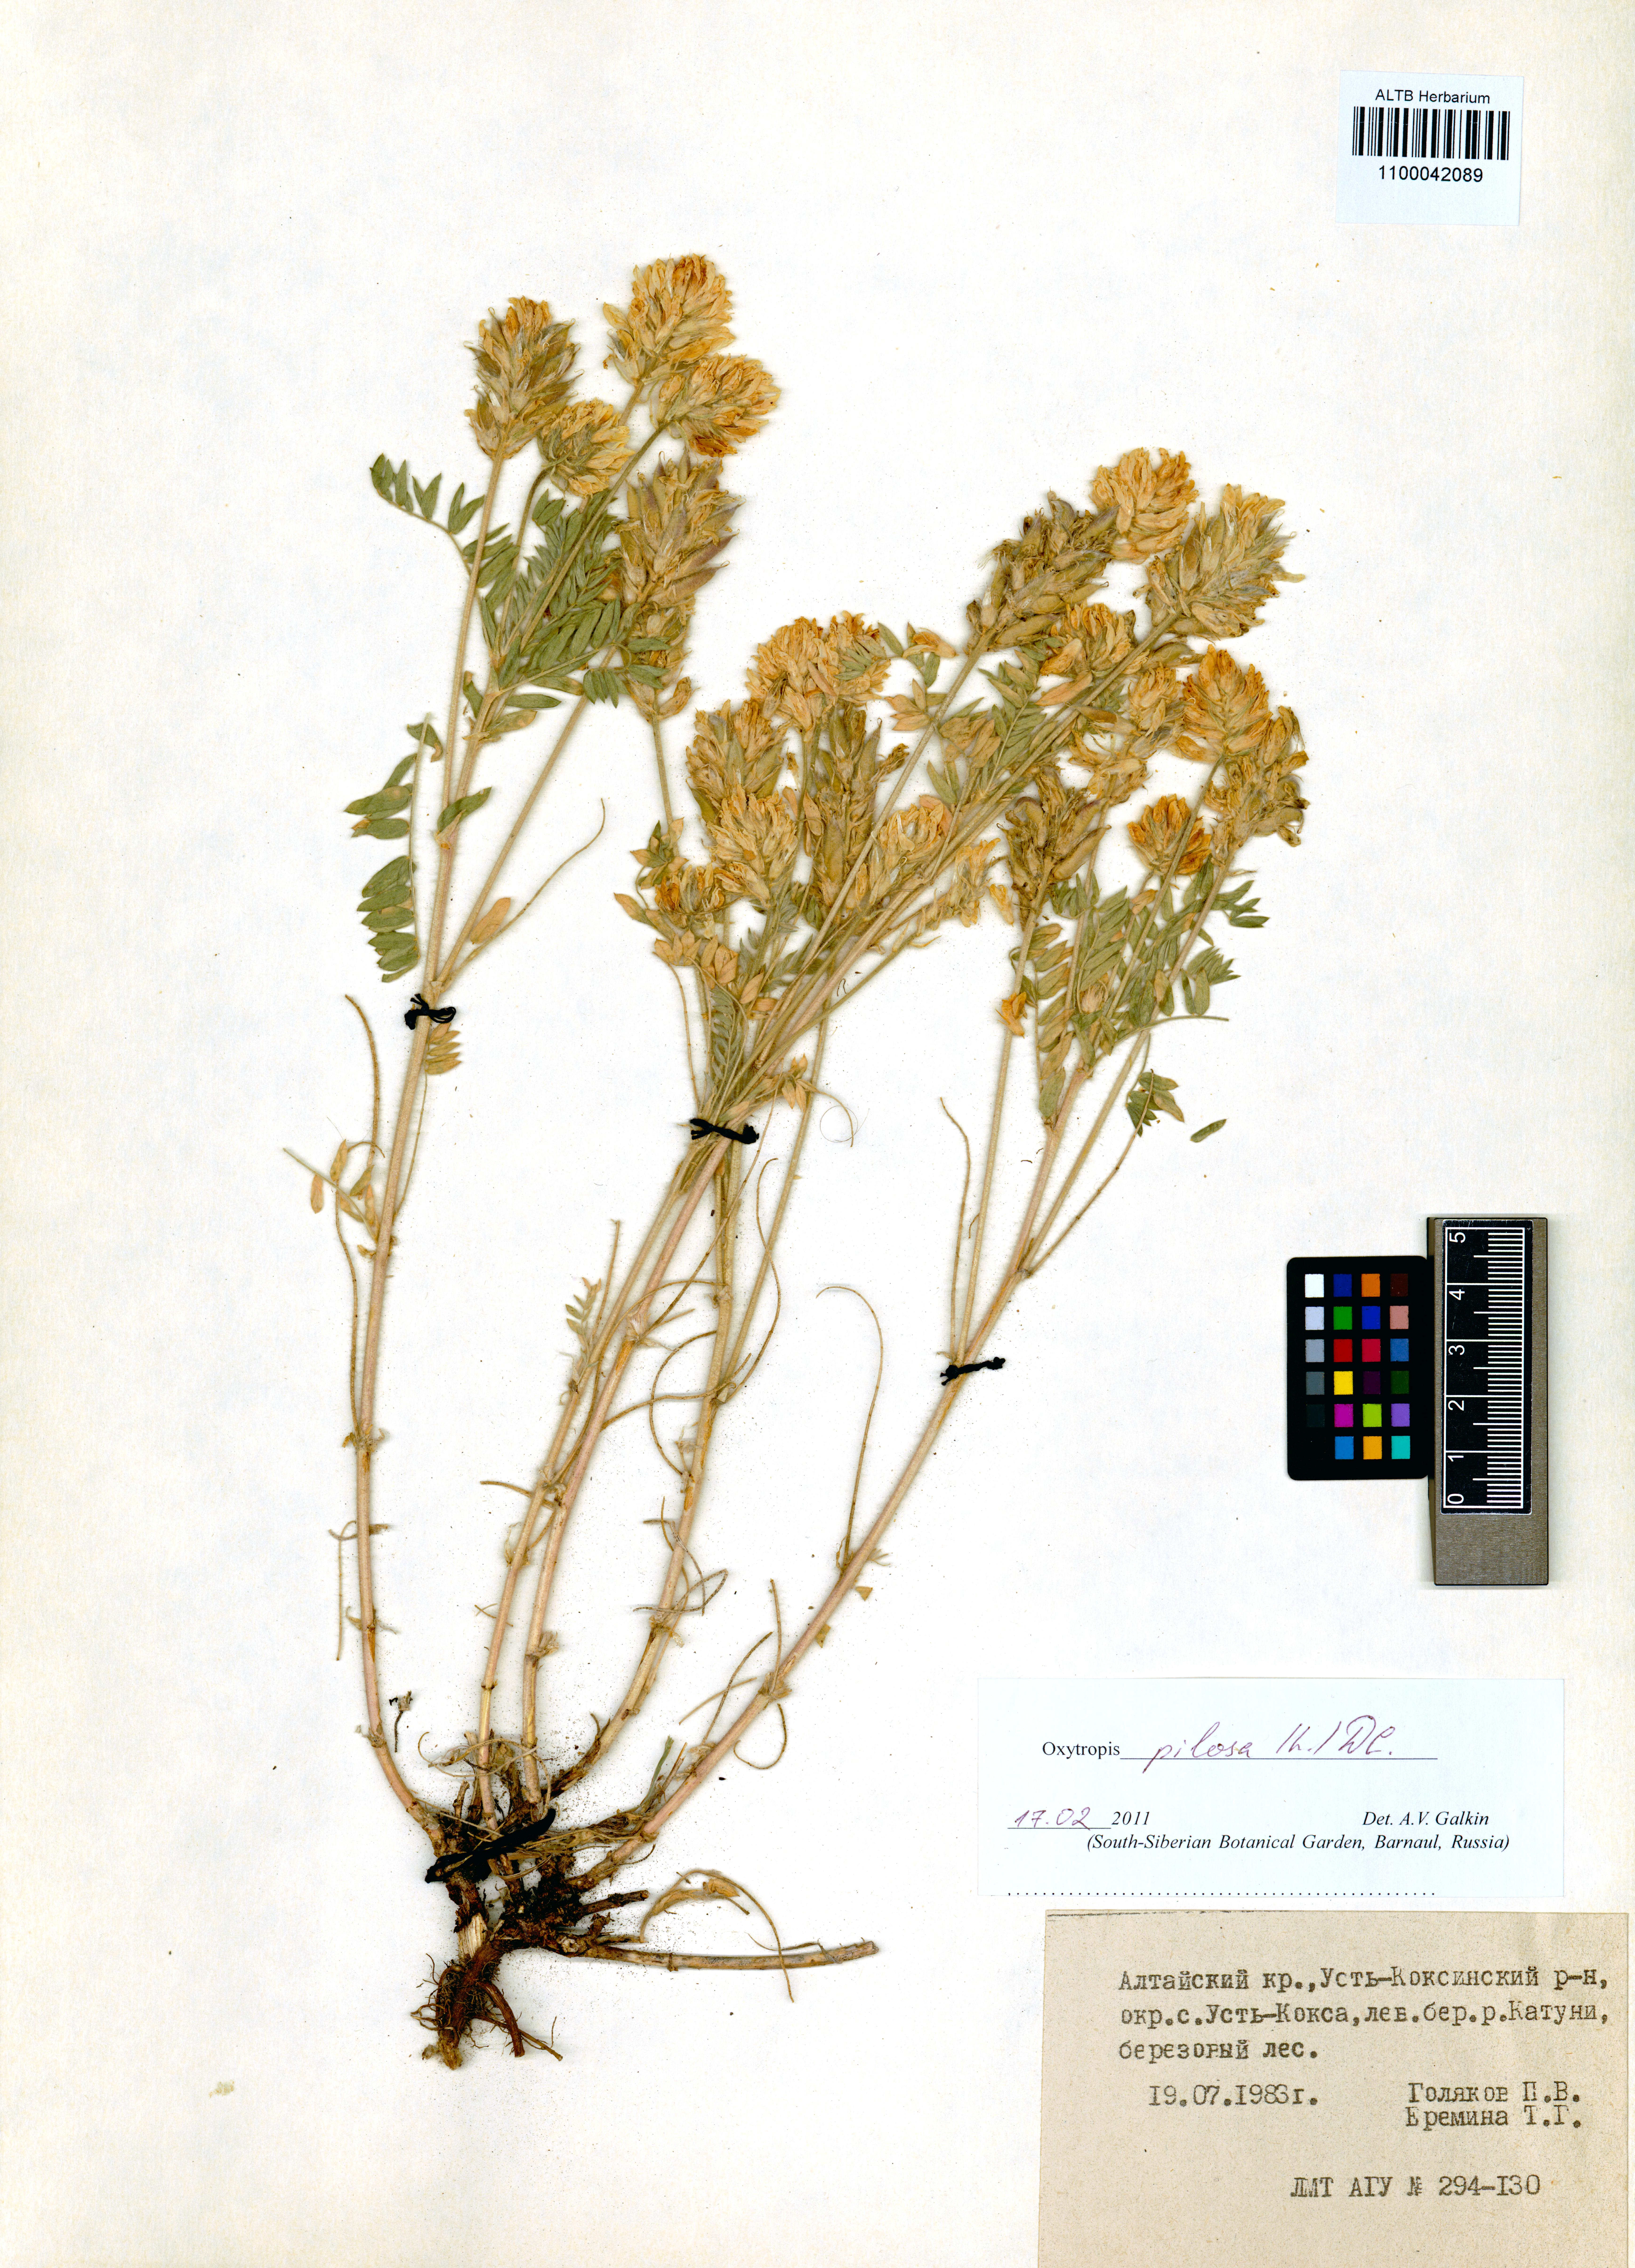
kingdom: Plantae
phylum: Tracheophyta
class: Magnoliopsida
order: Fabales
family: Fabaceae
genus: Oxytropis
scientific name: Oxytropis pilosa
